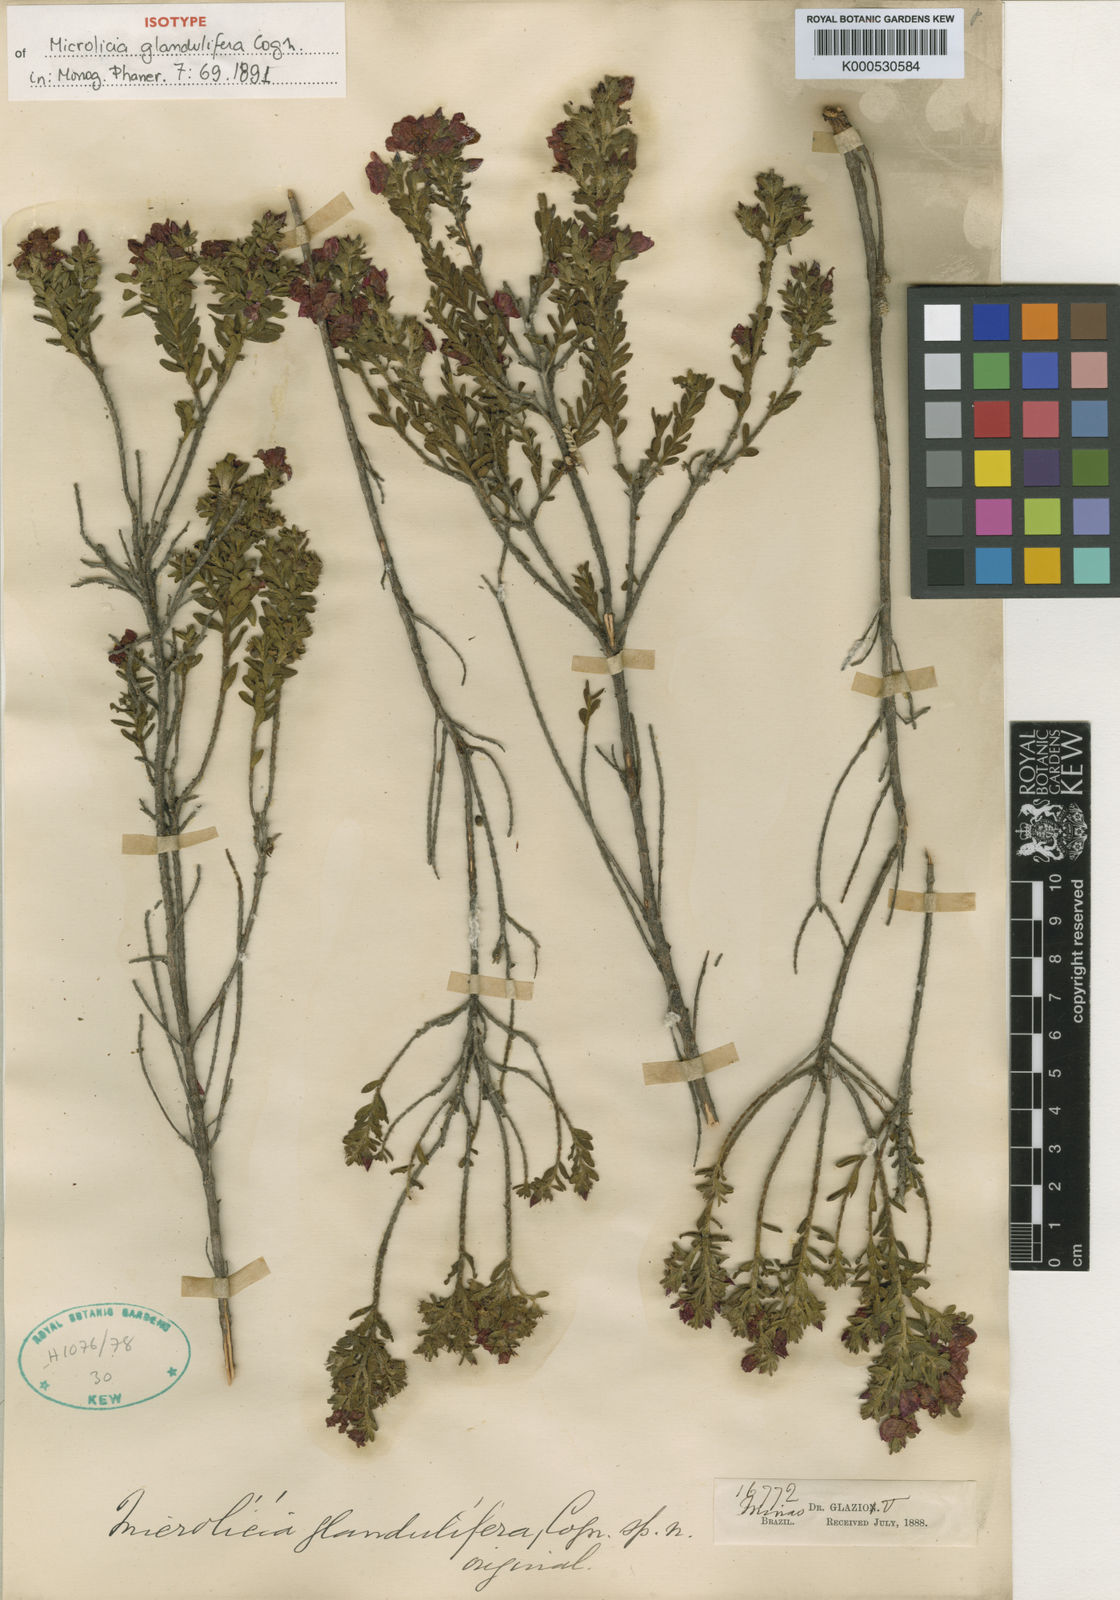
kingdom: Plantae
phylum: Tracheophyta
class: Magnoliopsida
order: Myrtales
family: Melastomataceae
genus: Microlicia
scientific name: Microlicia passerina
